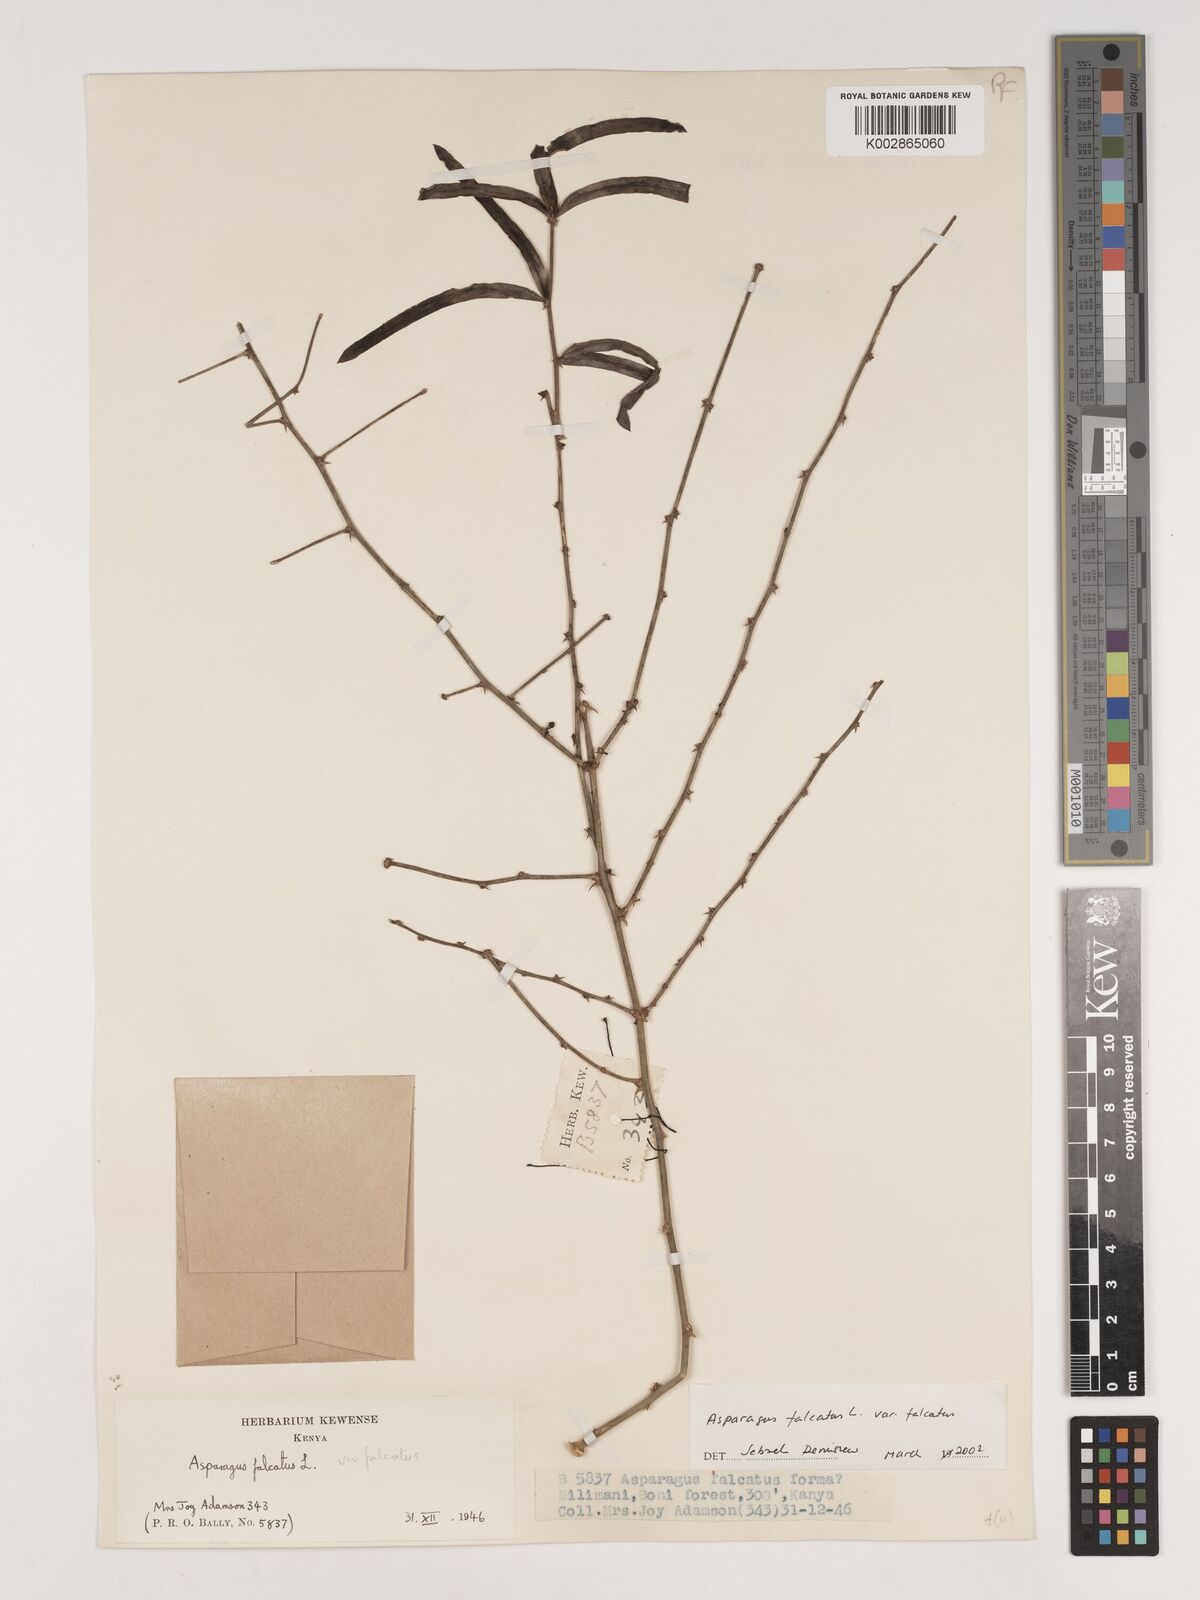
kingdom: Plantae
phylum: Tracheophyta
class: Liliopsida
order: Asparagales
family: Asparagaceae
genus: Asparagus
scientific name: Asparagus falcatus
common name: Asparagus
